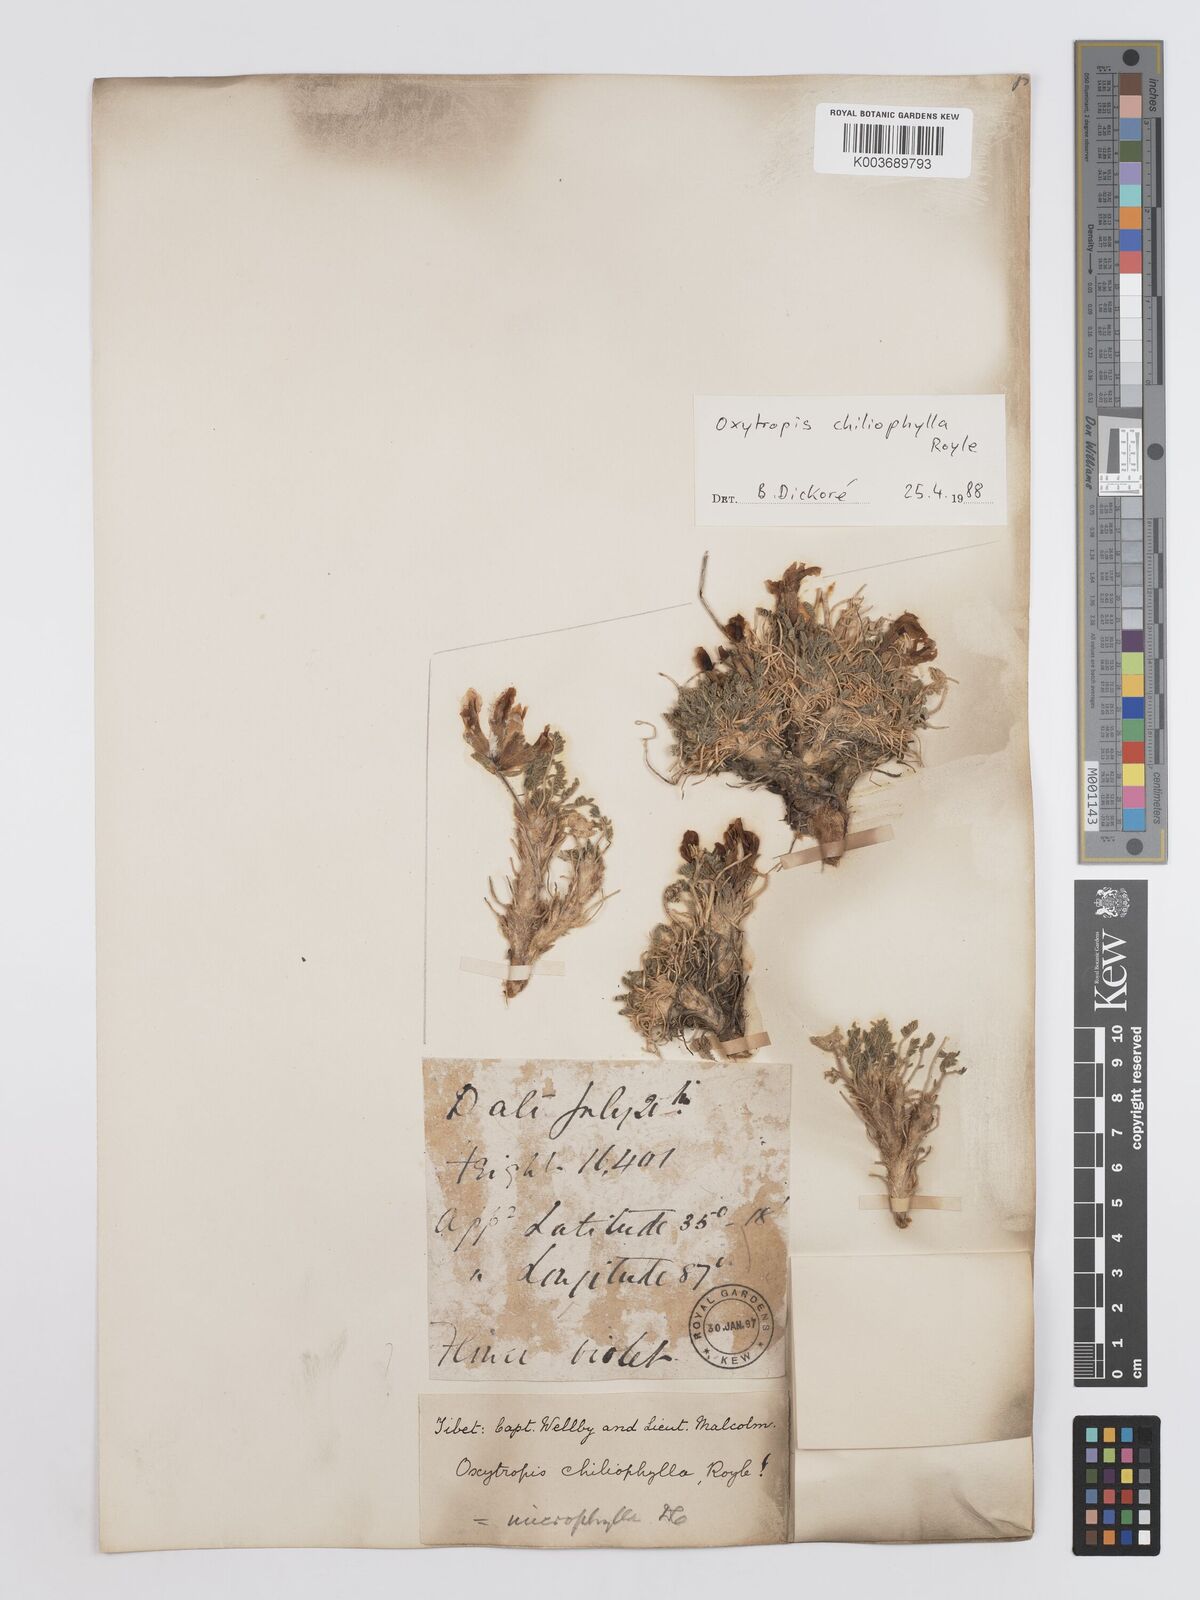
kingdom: Plantae
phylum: Tracheophyta
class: Magnoliopsida
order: Fabales
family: Fabaceae
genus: Oxytropis
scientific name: Oxytropis chiliophylla
